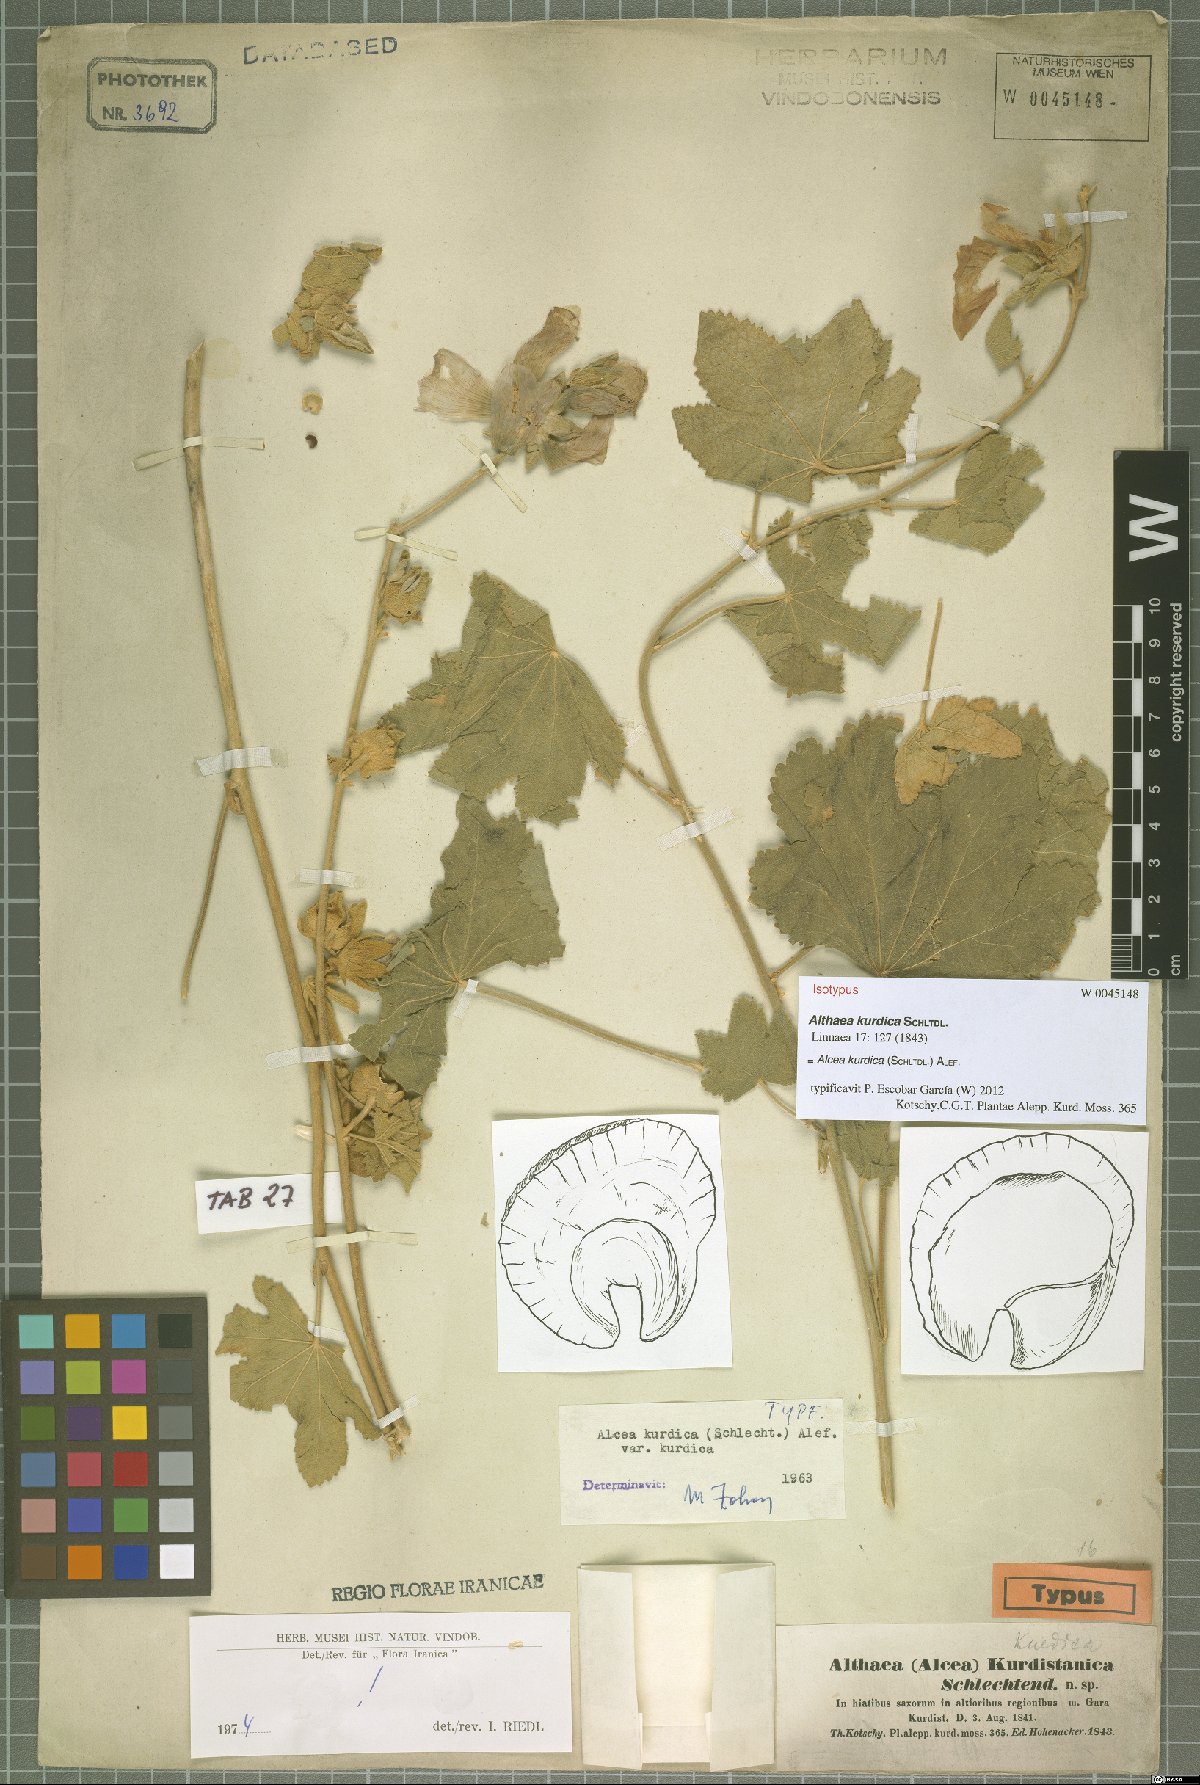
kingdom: Plantae
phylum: Tracheophyta
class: Magnoliopsida
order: Malvales
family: Malvaceae
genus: Alcea
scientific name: Alcea kurdica
